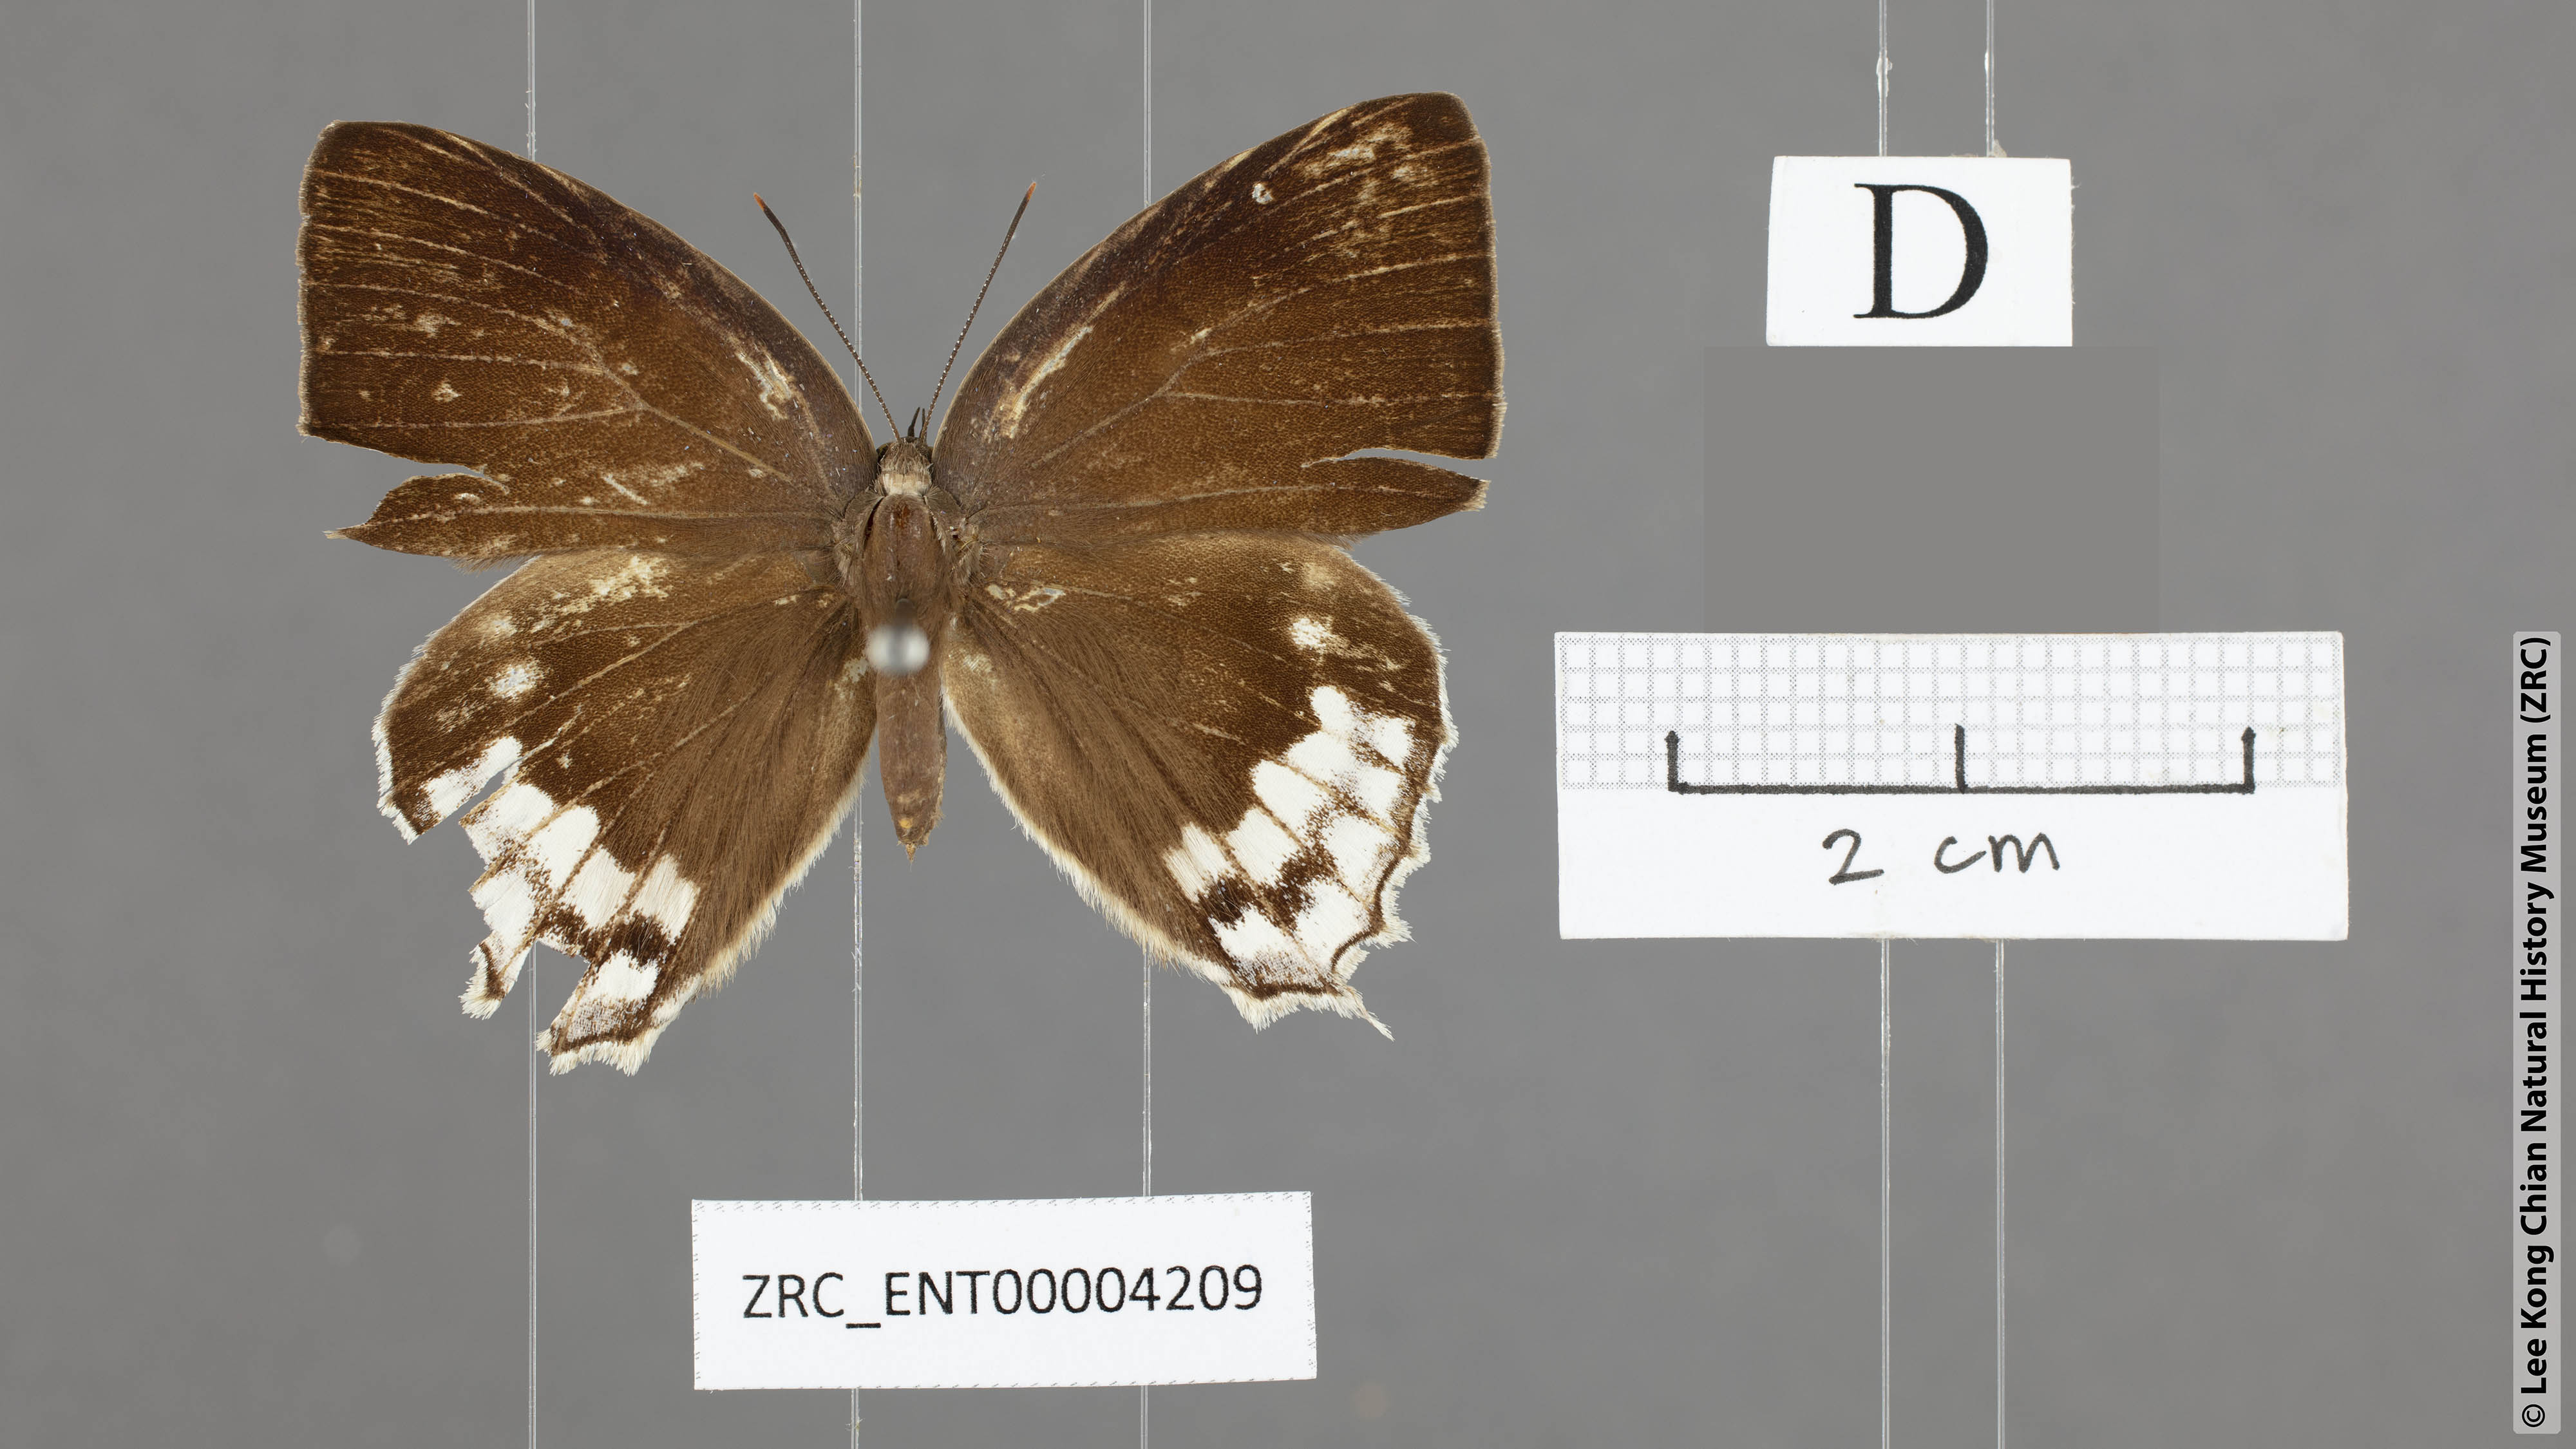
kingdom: Animalia
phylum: Arthropoda
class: Insecta
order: Lepidoptera
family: Lycaenidae
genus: Drina
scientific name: Drina cowani
